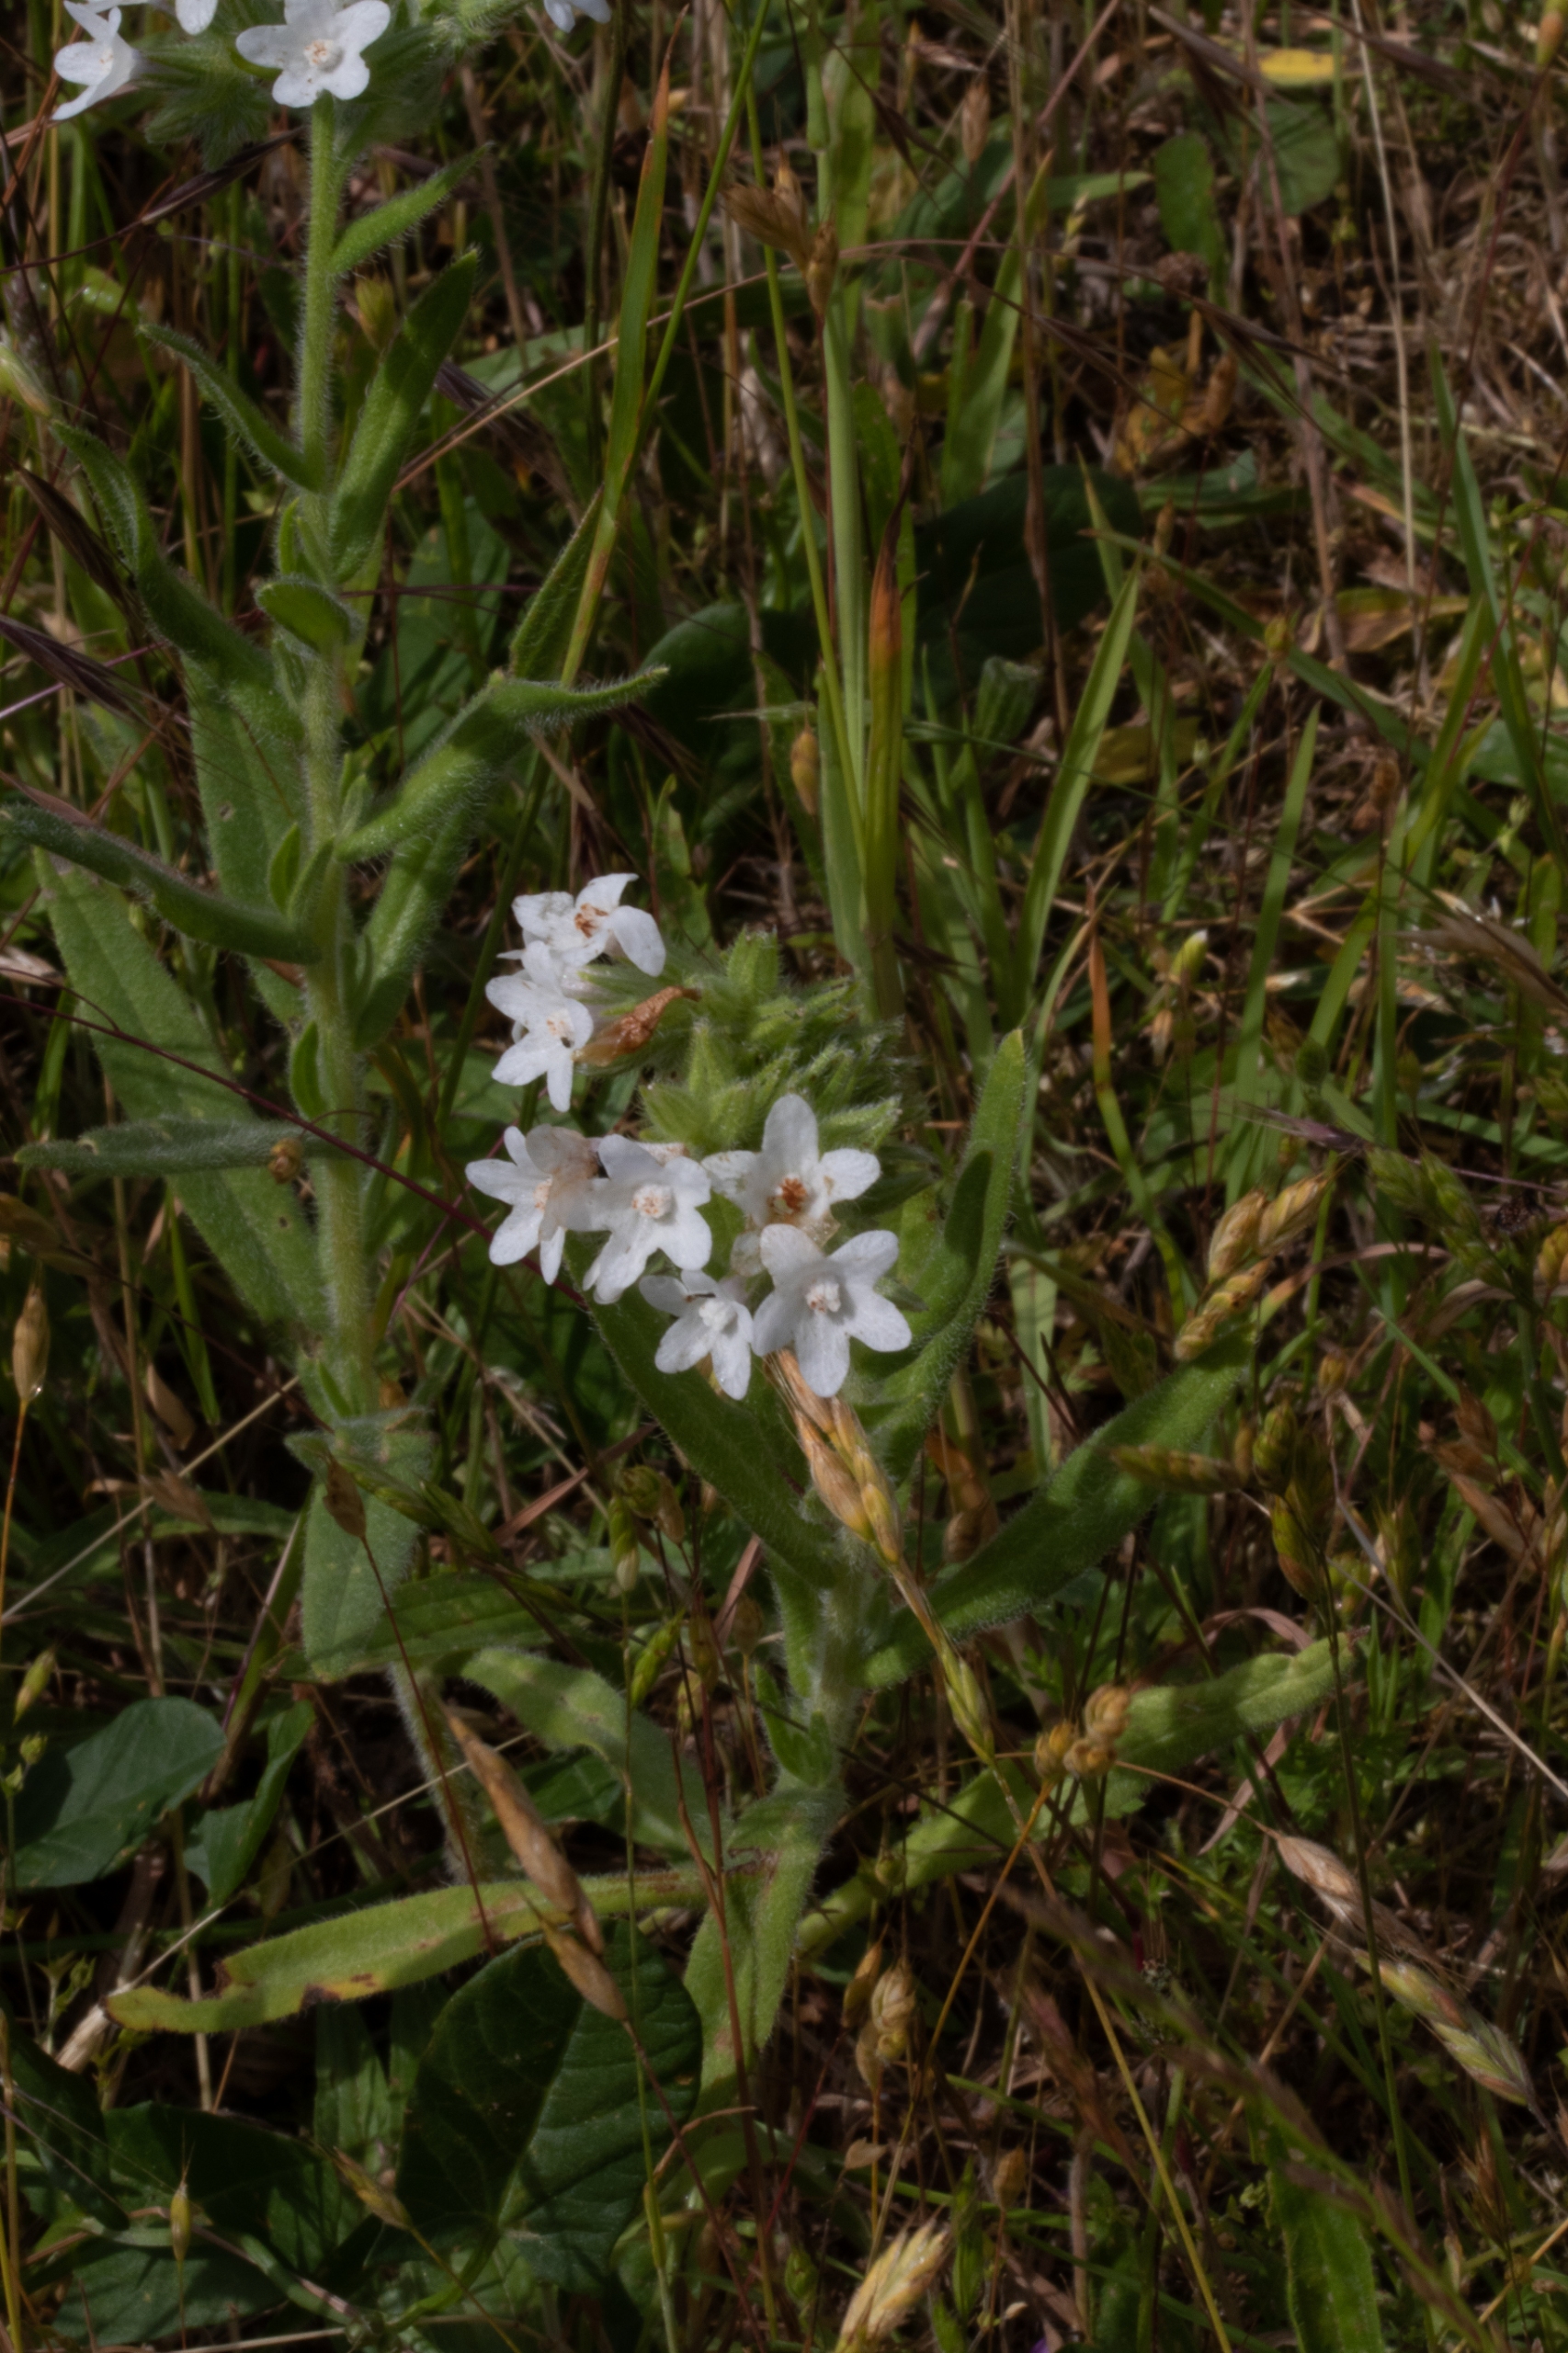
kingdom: Plantae
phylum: Tracheophyta
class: Magnoliopsida
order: Boraginales
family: Boraginaceae
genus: Anchusa
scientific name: Anchusa officinalis
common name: Læge-oksetunge
